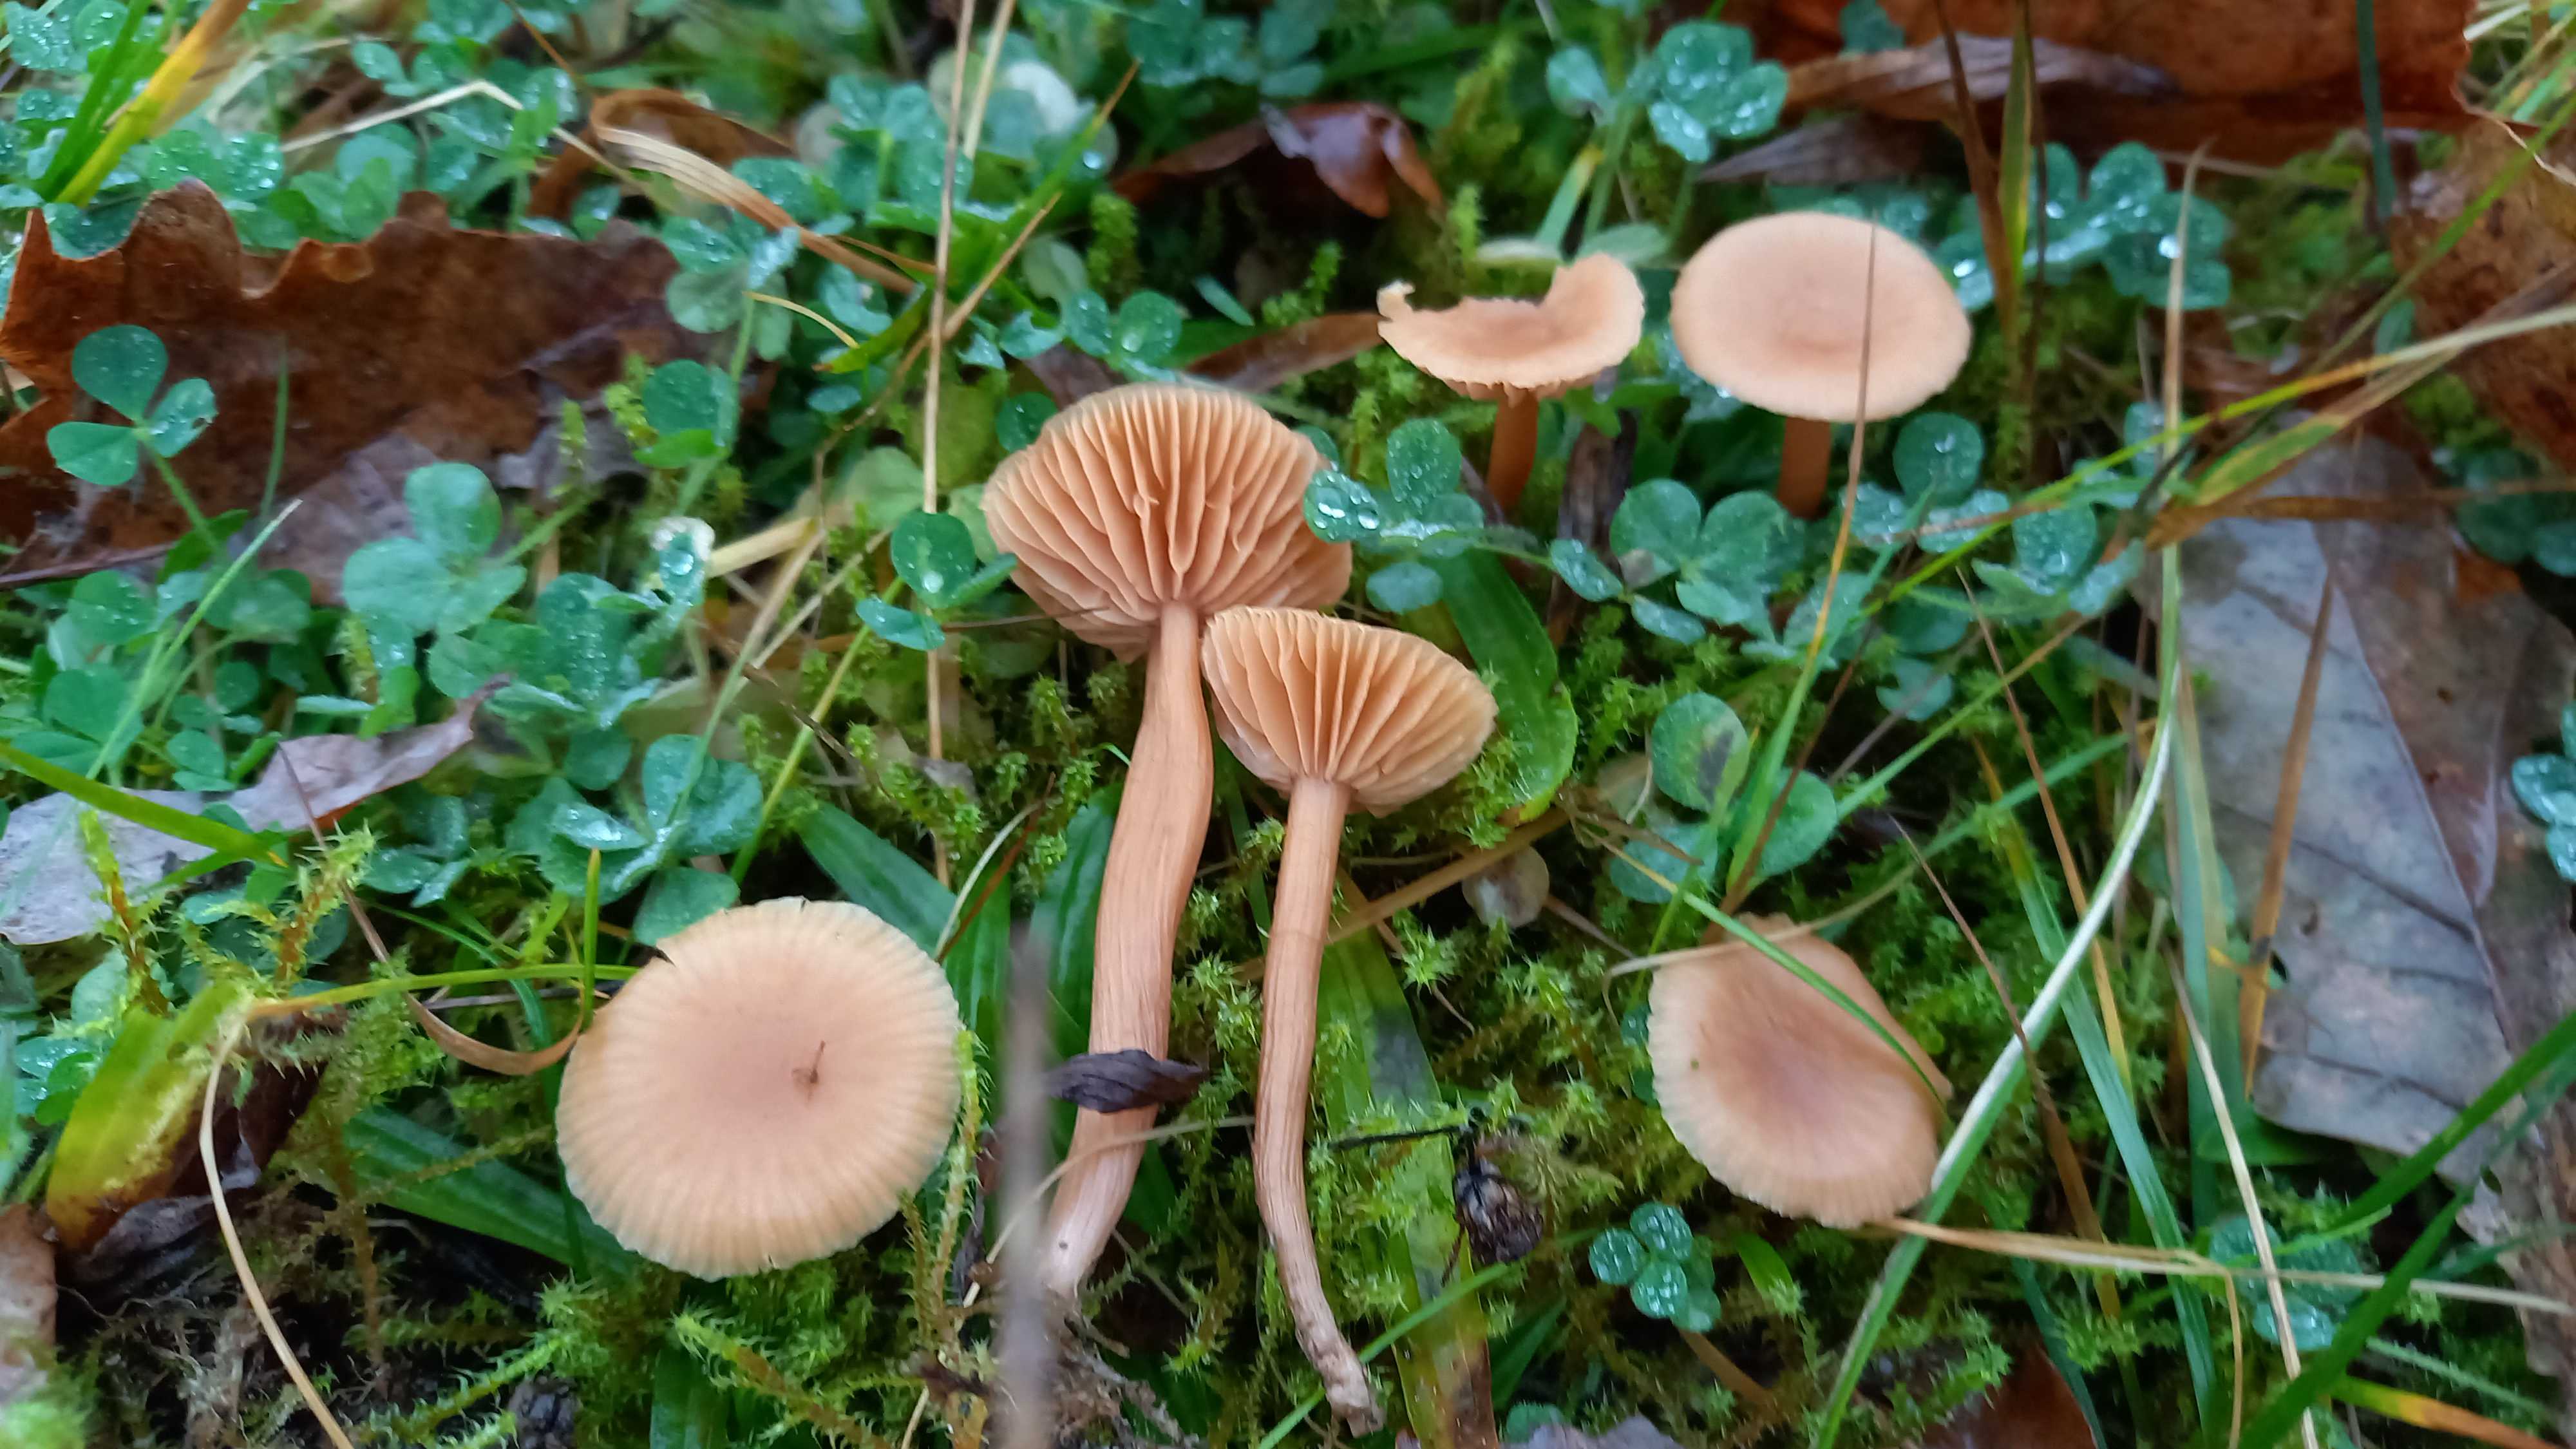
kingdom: Fungi
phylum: Basidiomycota
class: Agaricomycetes
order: Agaricales
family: Hydnangiaceae
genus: Laccaria
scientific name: Laccaria laccata
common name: rød ametysthat
